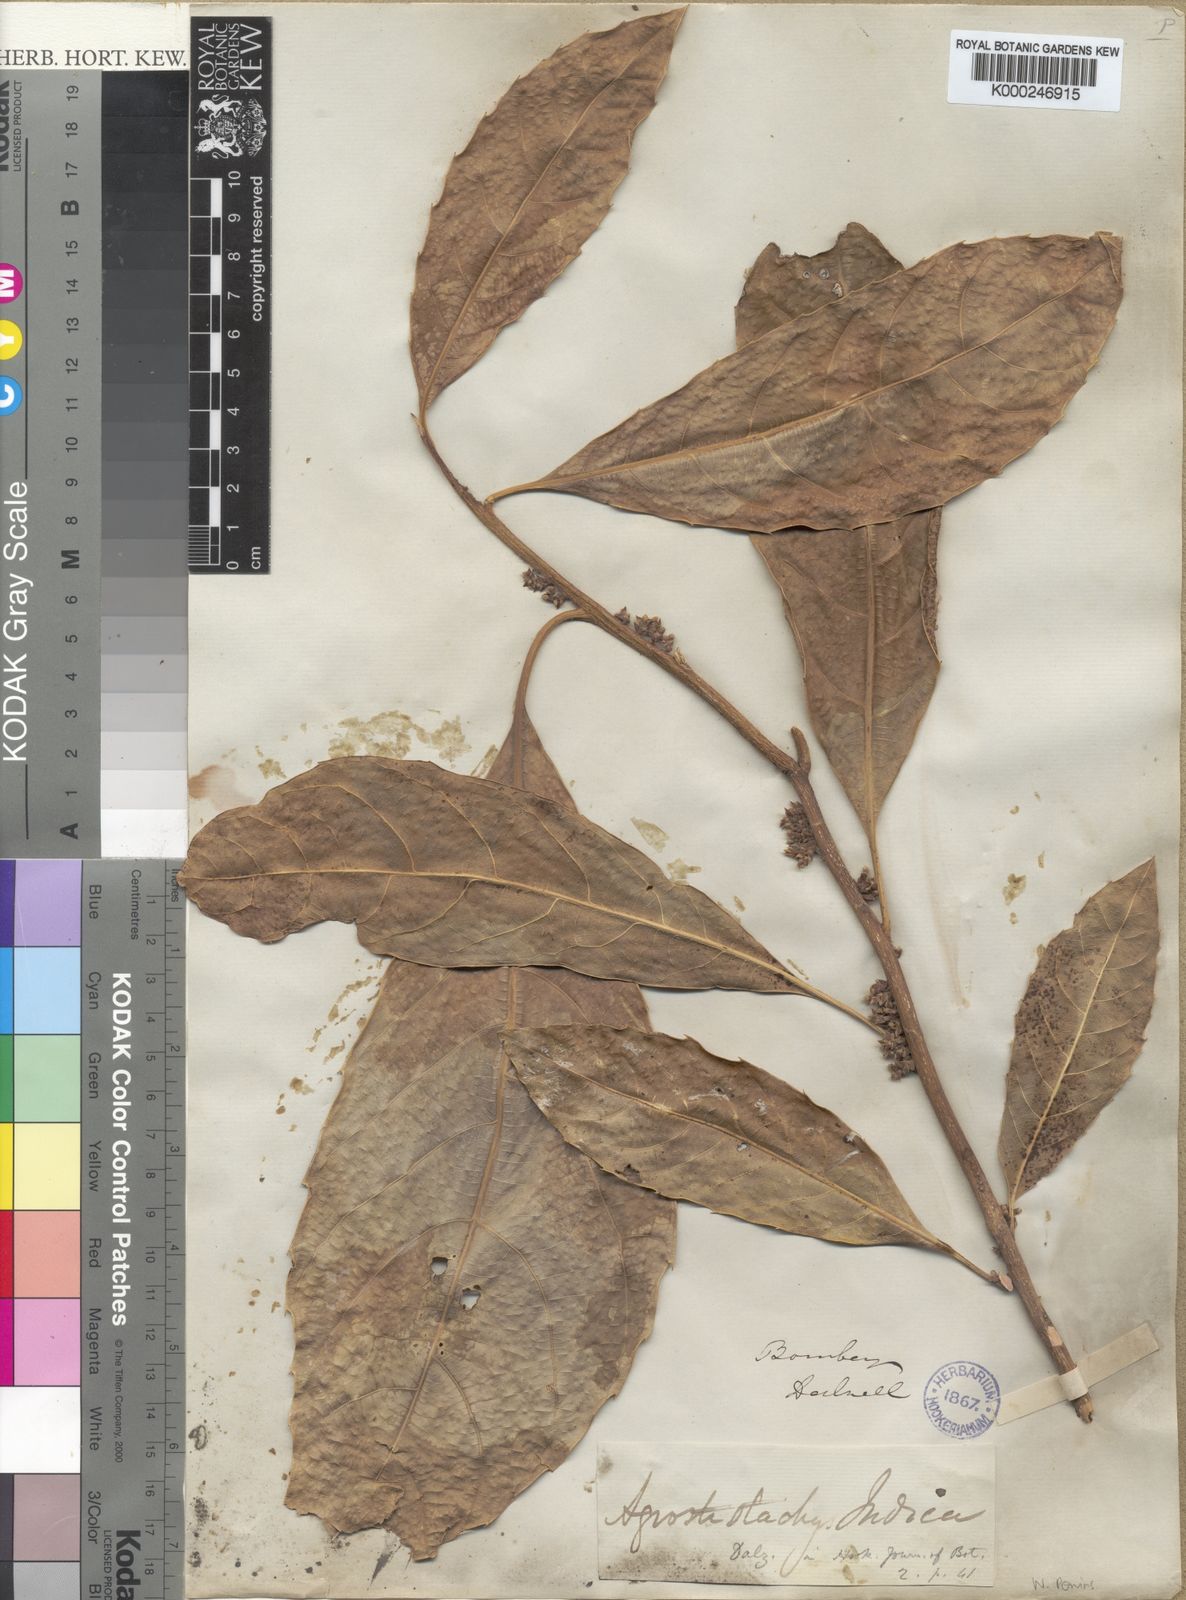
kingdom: Plantae
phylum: Tracheophyta
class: Magnoliopsida
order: Malpighiales
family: Euphorbiaceae
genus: Agrostistachys
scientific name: Agrostistachys indica
